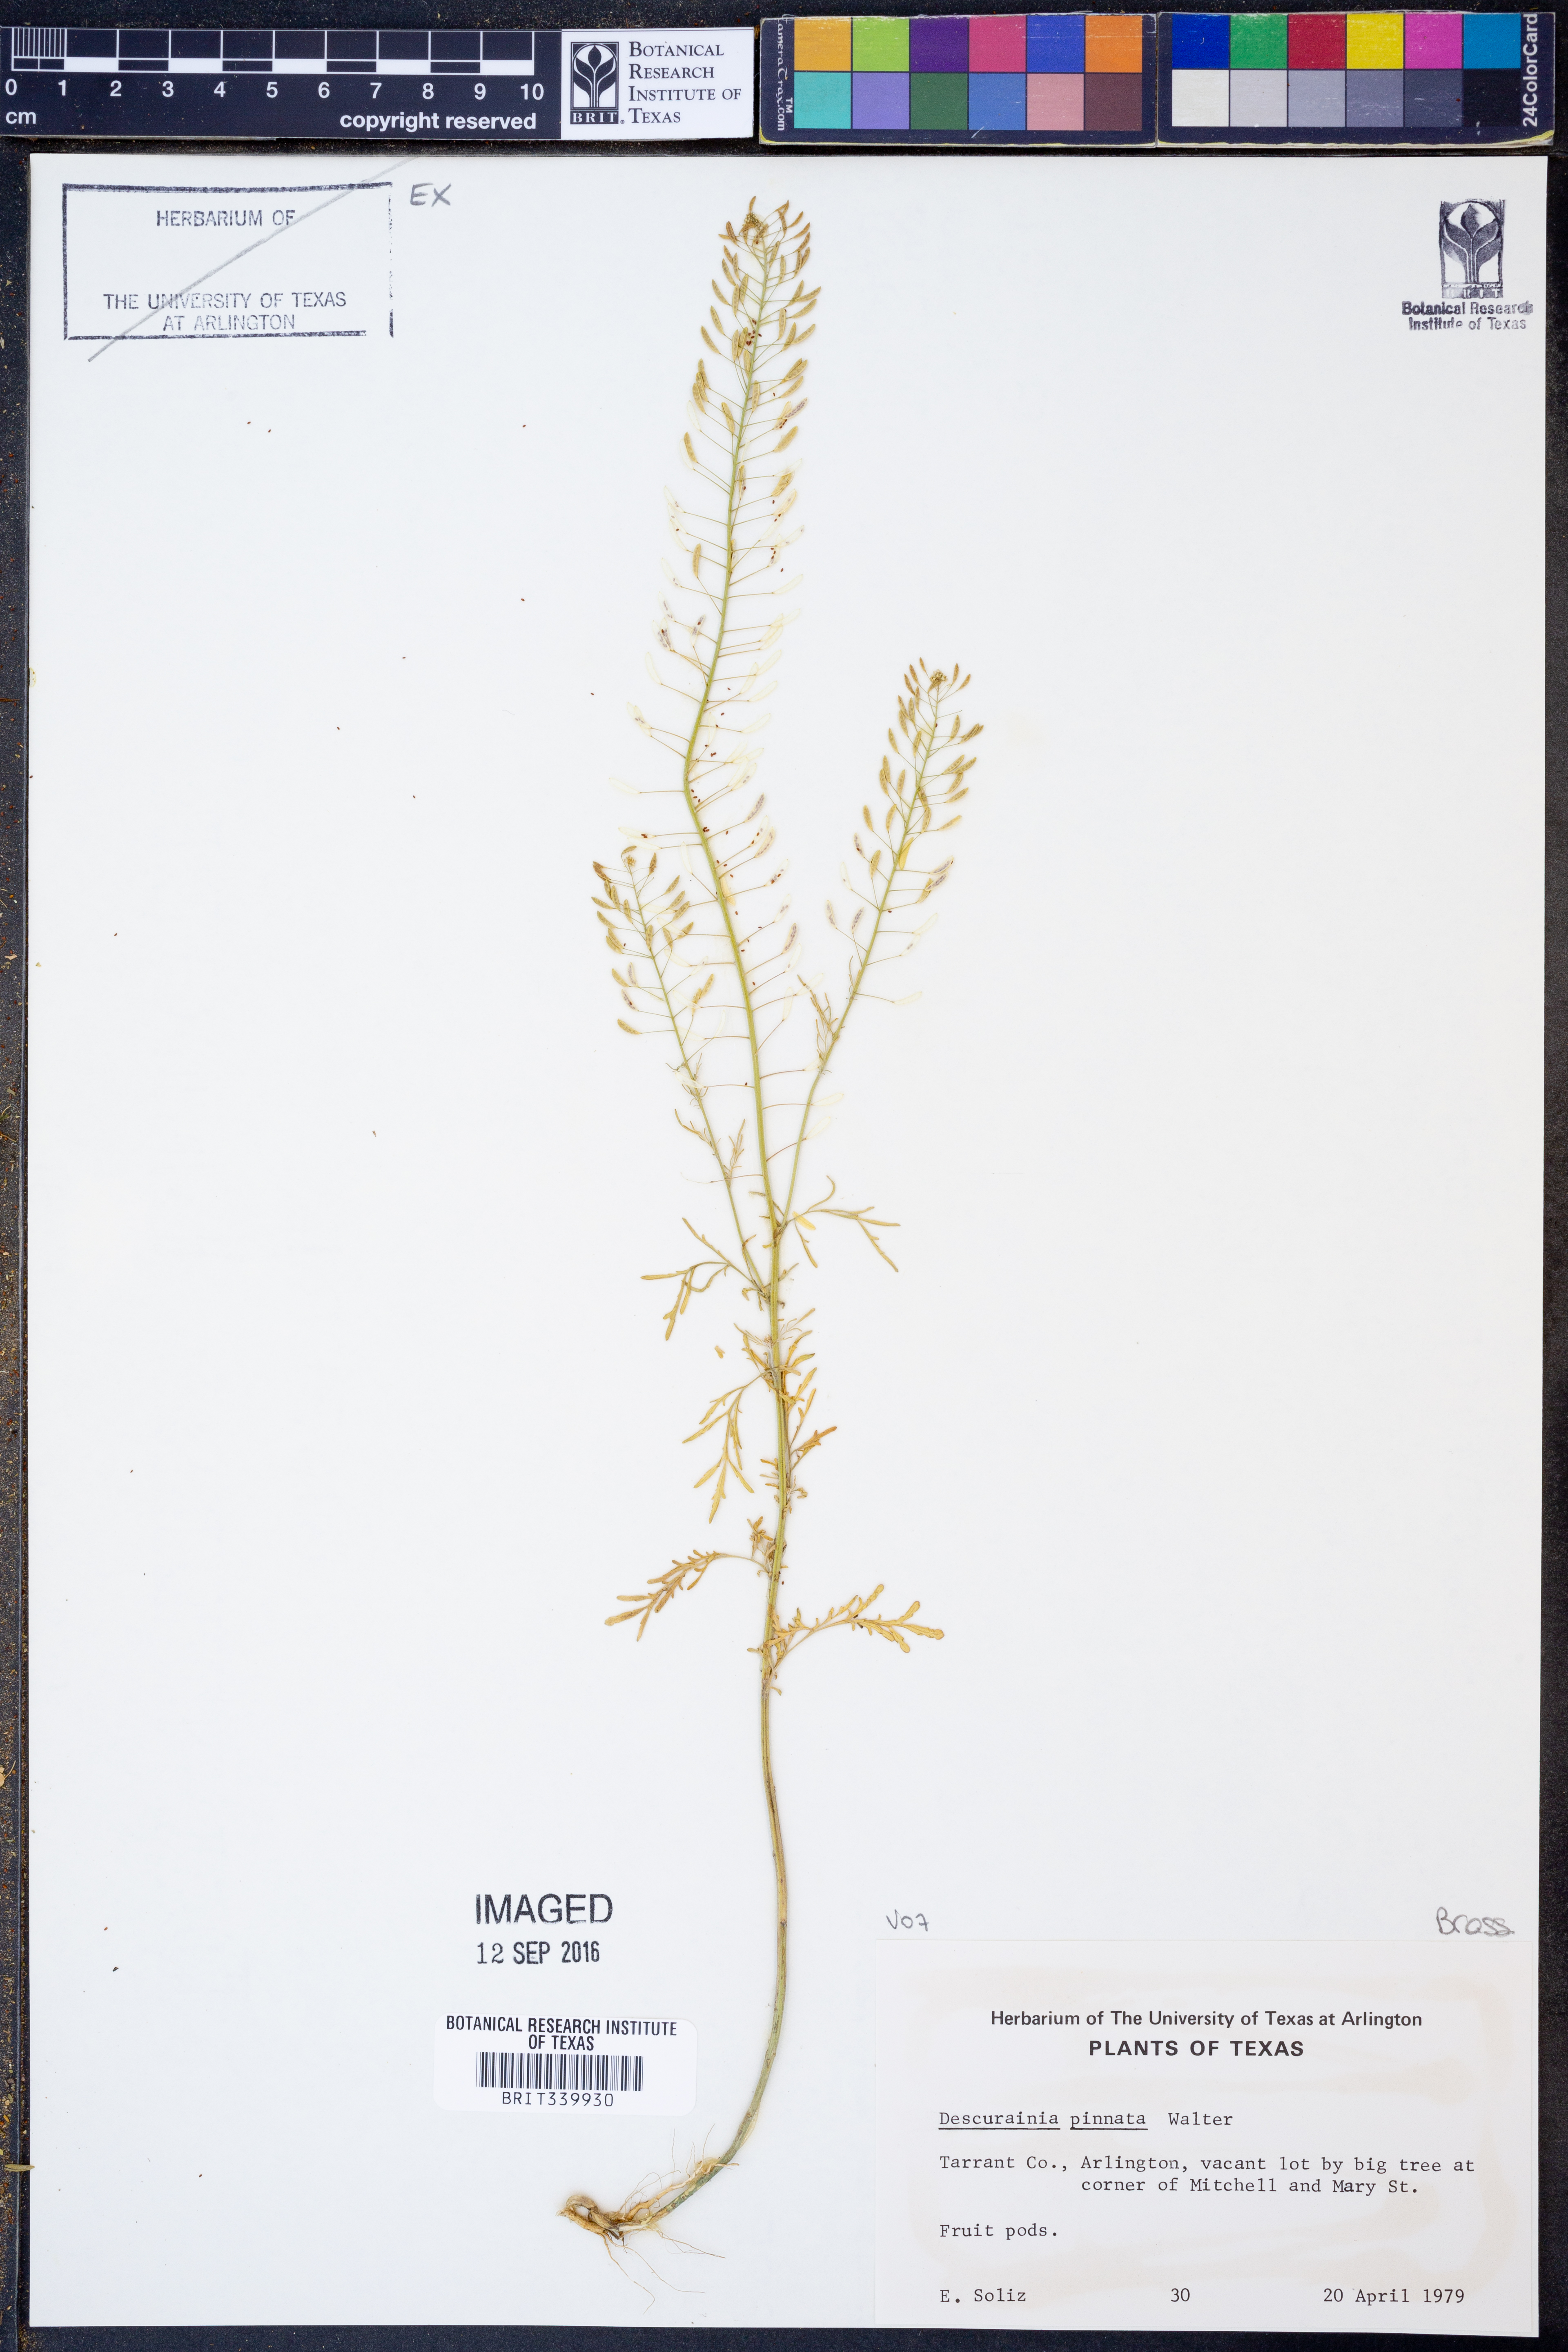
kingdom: Plantae
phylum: Tracheophyta
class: Magnoliopsida
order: Brassicales
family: Brassicaceae
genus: Descurainia
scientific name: Descurainia pinnata
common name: Western tansy mustard
